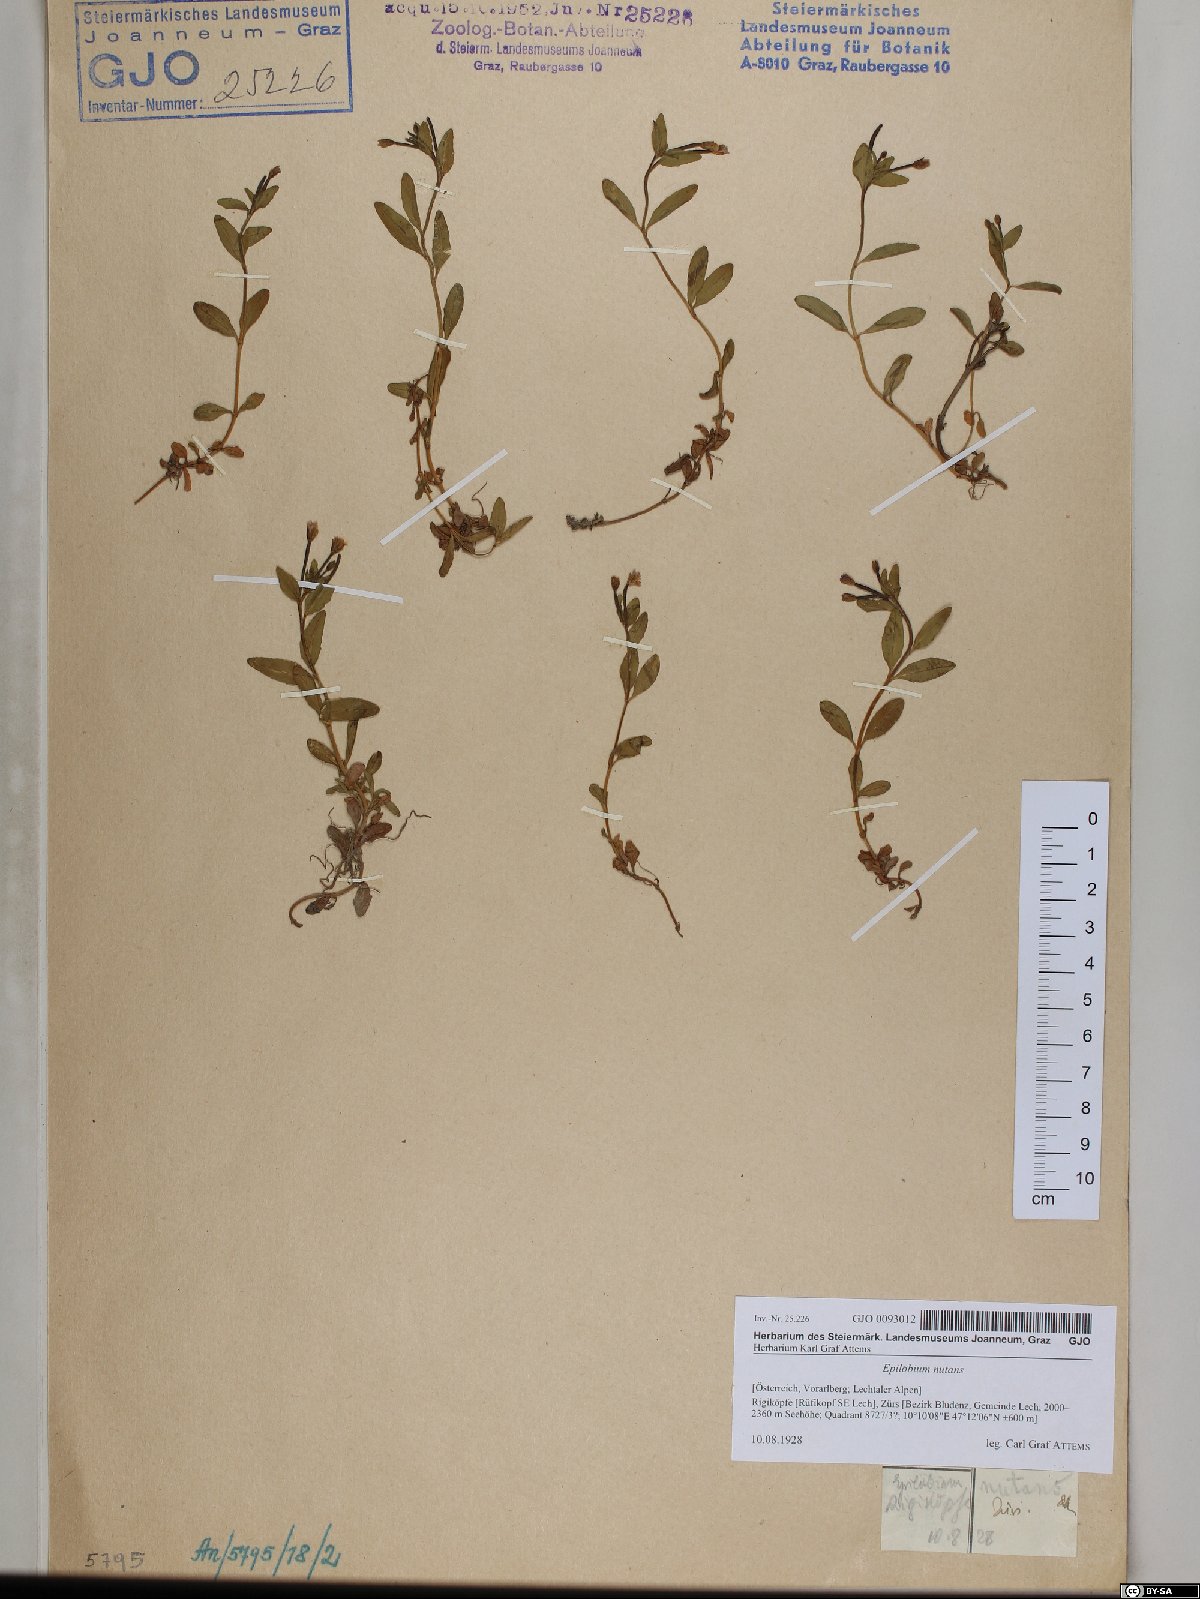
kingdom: Plantae
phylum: Tracheophyta
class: Magnoliopsida
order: Myrtales
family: Onagraceae
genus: Epilobium
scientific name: Epilobium nutans
